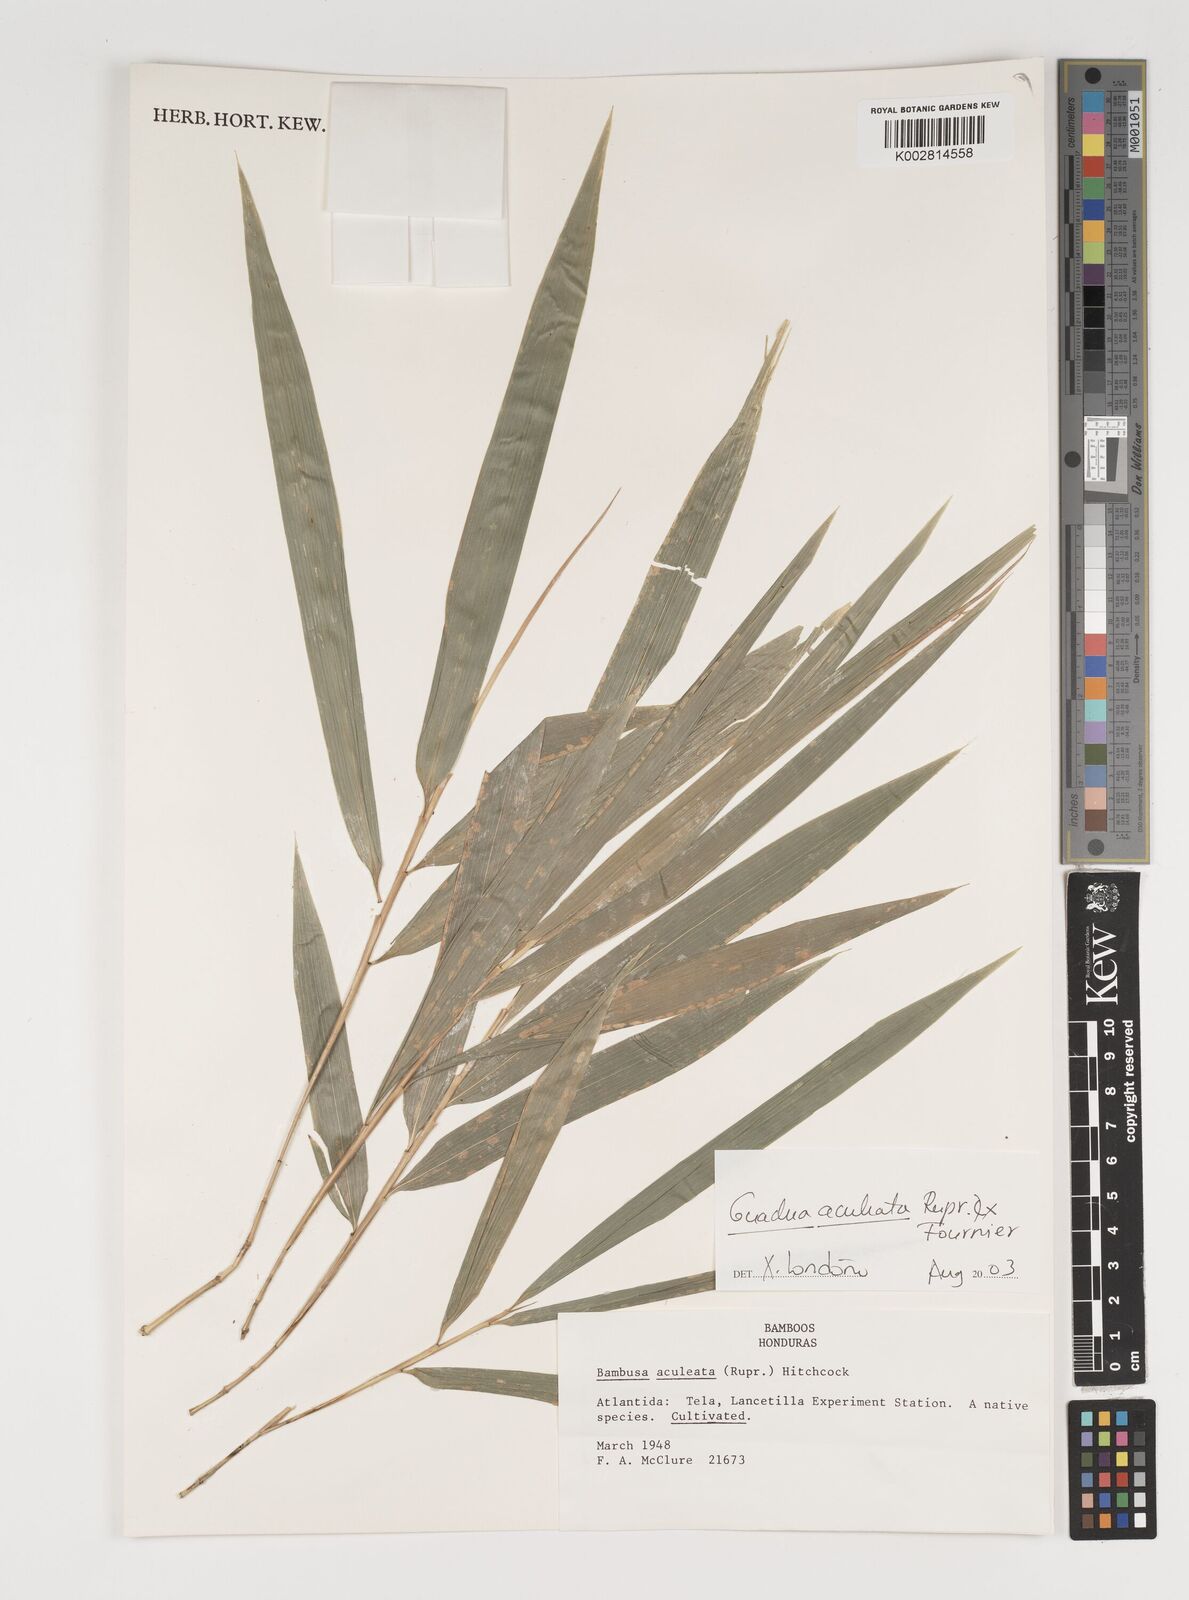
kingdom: Plantae
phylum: Tracheophyta
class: Liliopsida
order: Poales
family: Poaceae
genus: Guadua
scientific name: Guadua aculeata
